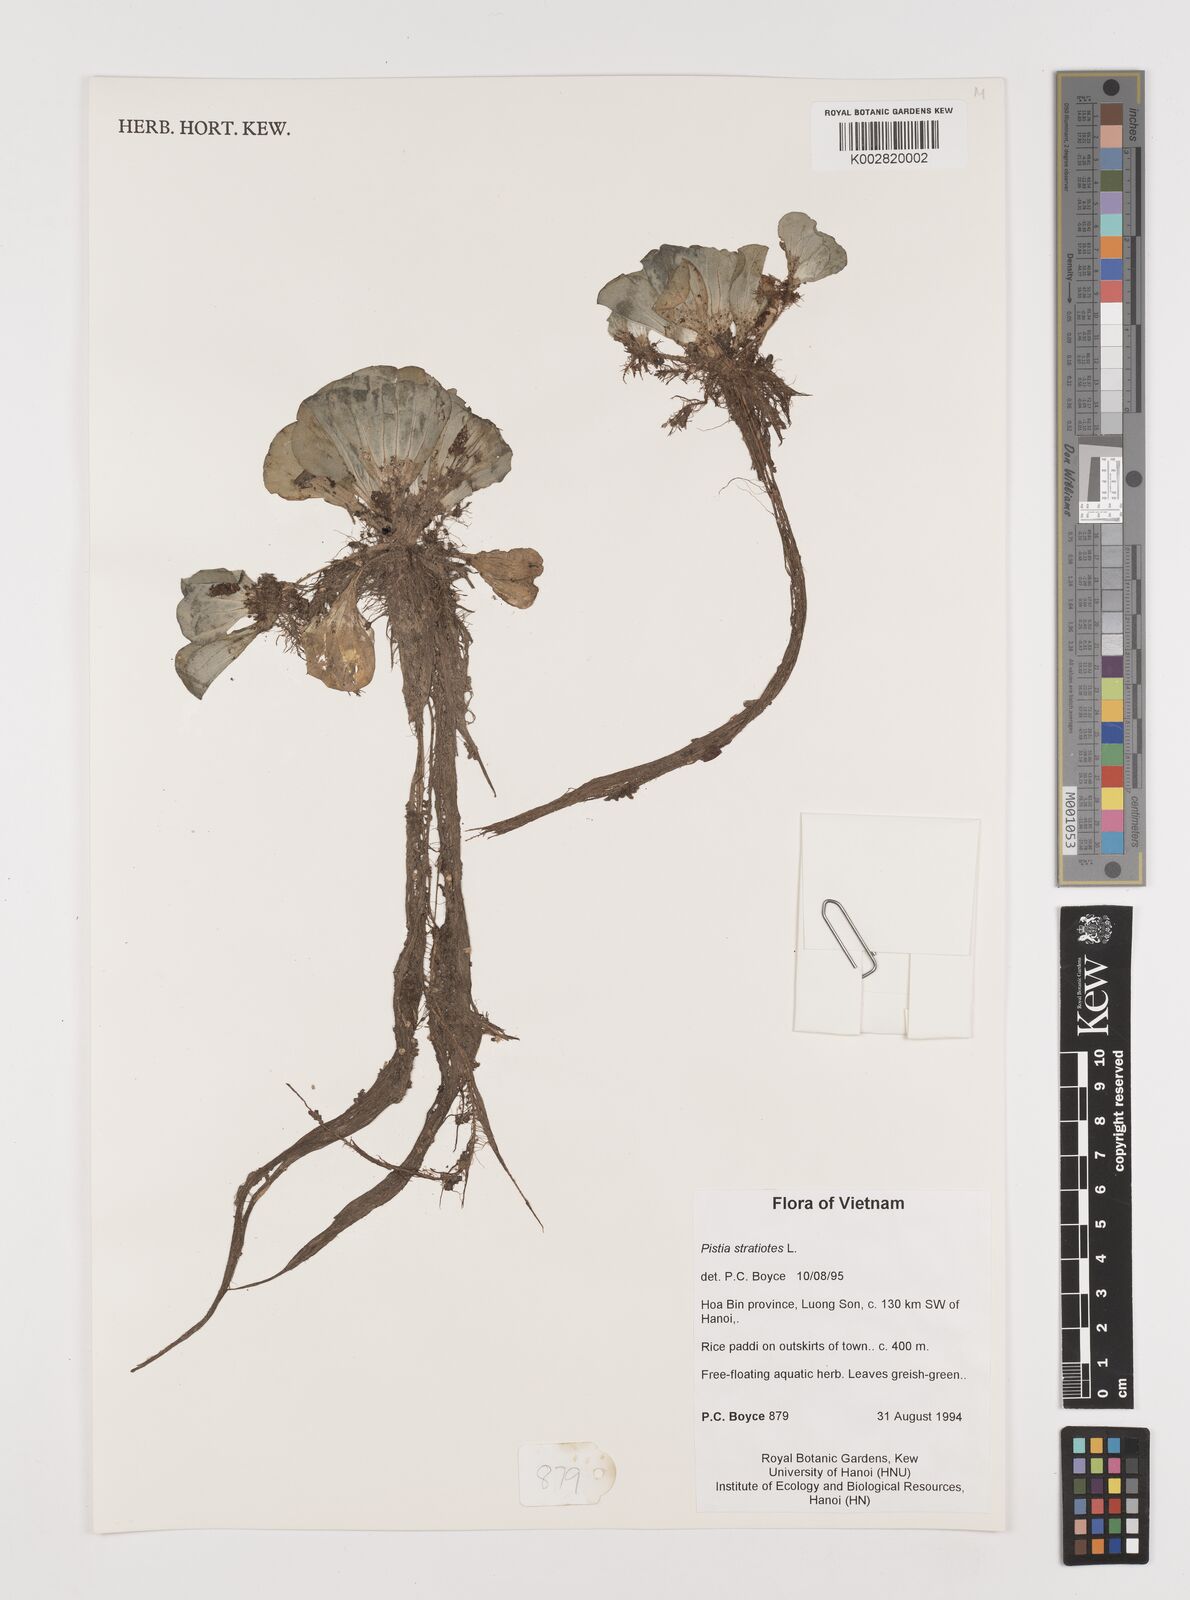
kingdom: Plantae
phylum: Tracheophyta
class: Liliopsida
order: Alismatales
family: Araceae
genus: Pistia
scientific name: Pistia stratiotes
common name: Water lettuce
